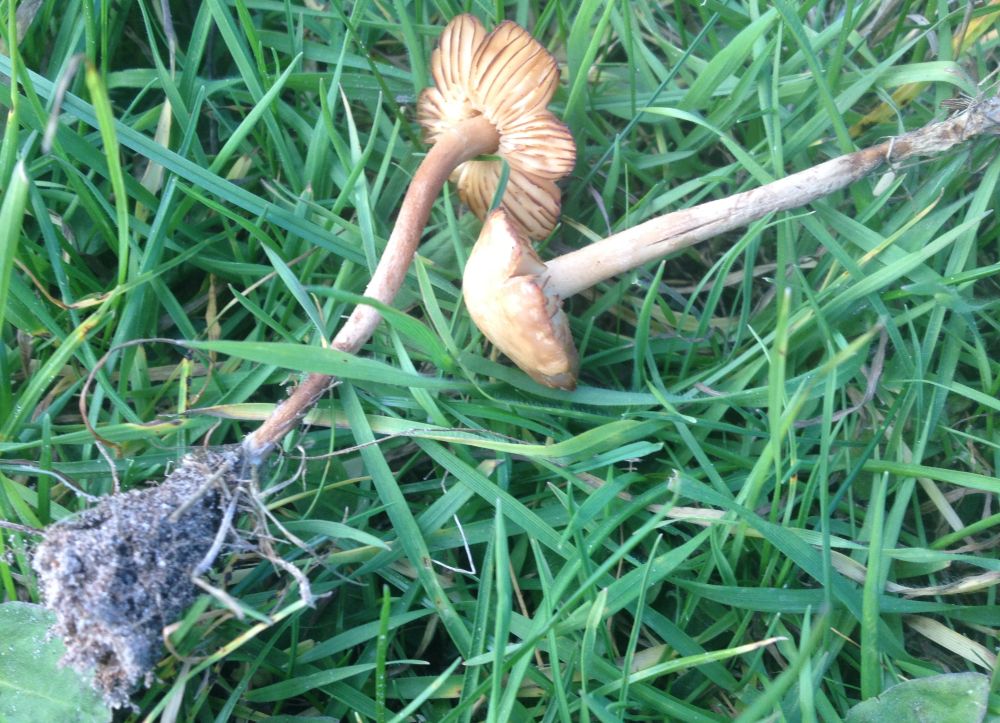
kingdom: Fungi
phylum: Basidiomycota
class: Agaricomycetes
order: Agaricales
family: Marasmiaceae
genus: Marasmius
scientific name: Marasmius oreades
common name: elledans-bruskhat
